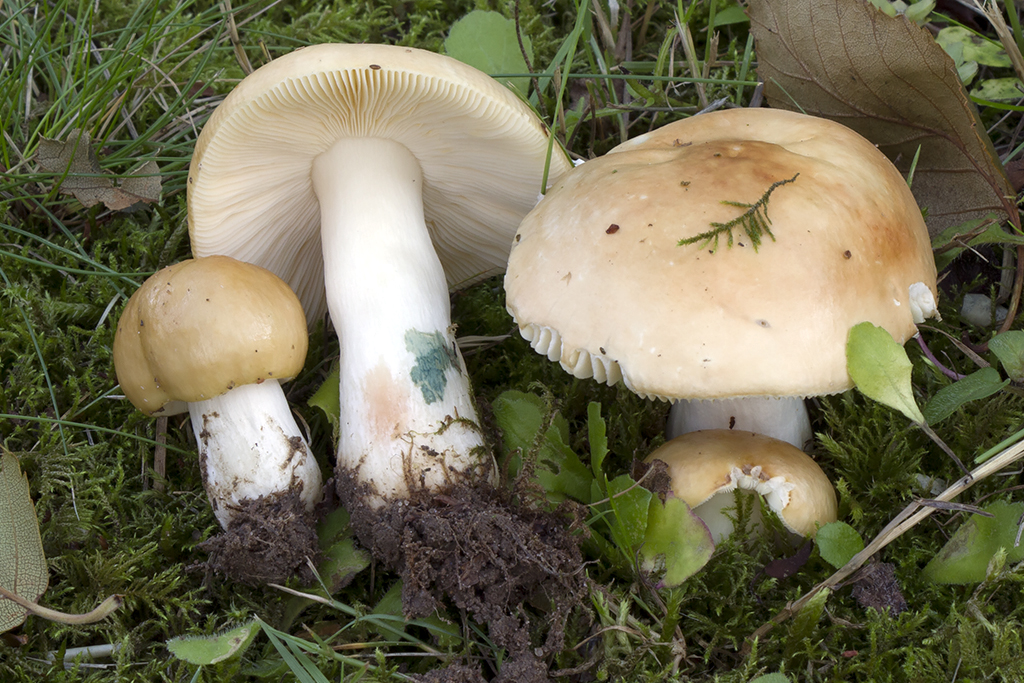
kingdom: Fungi
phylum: Basidiomycota
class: Agaricomycetes
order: Russulales
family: Russulaceae
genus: Russula
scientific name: Russula
